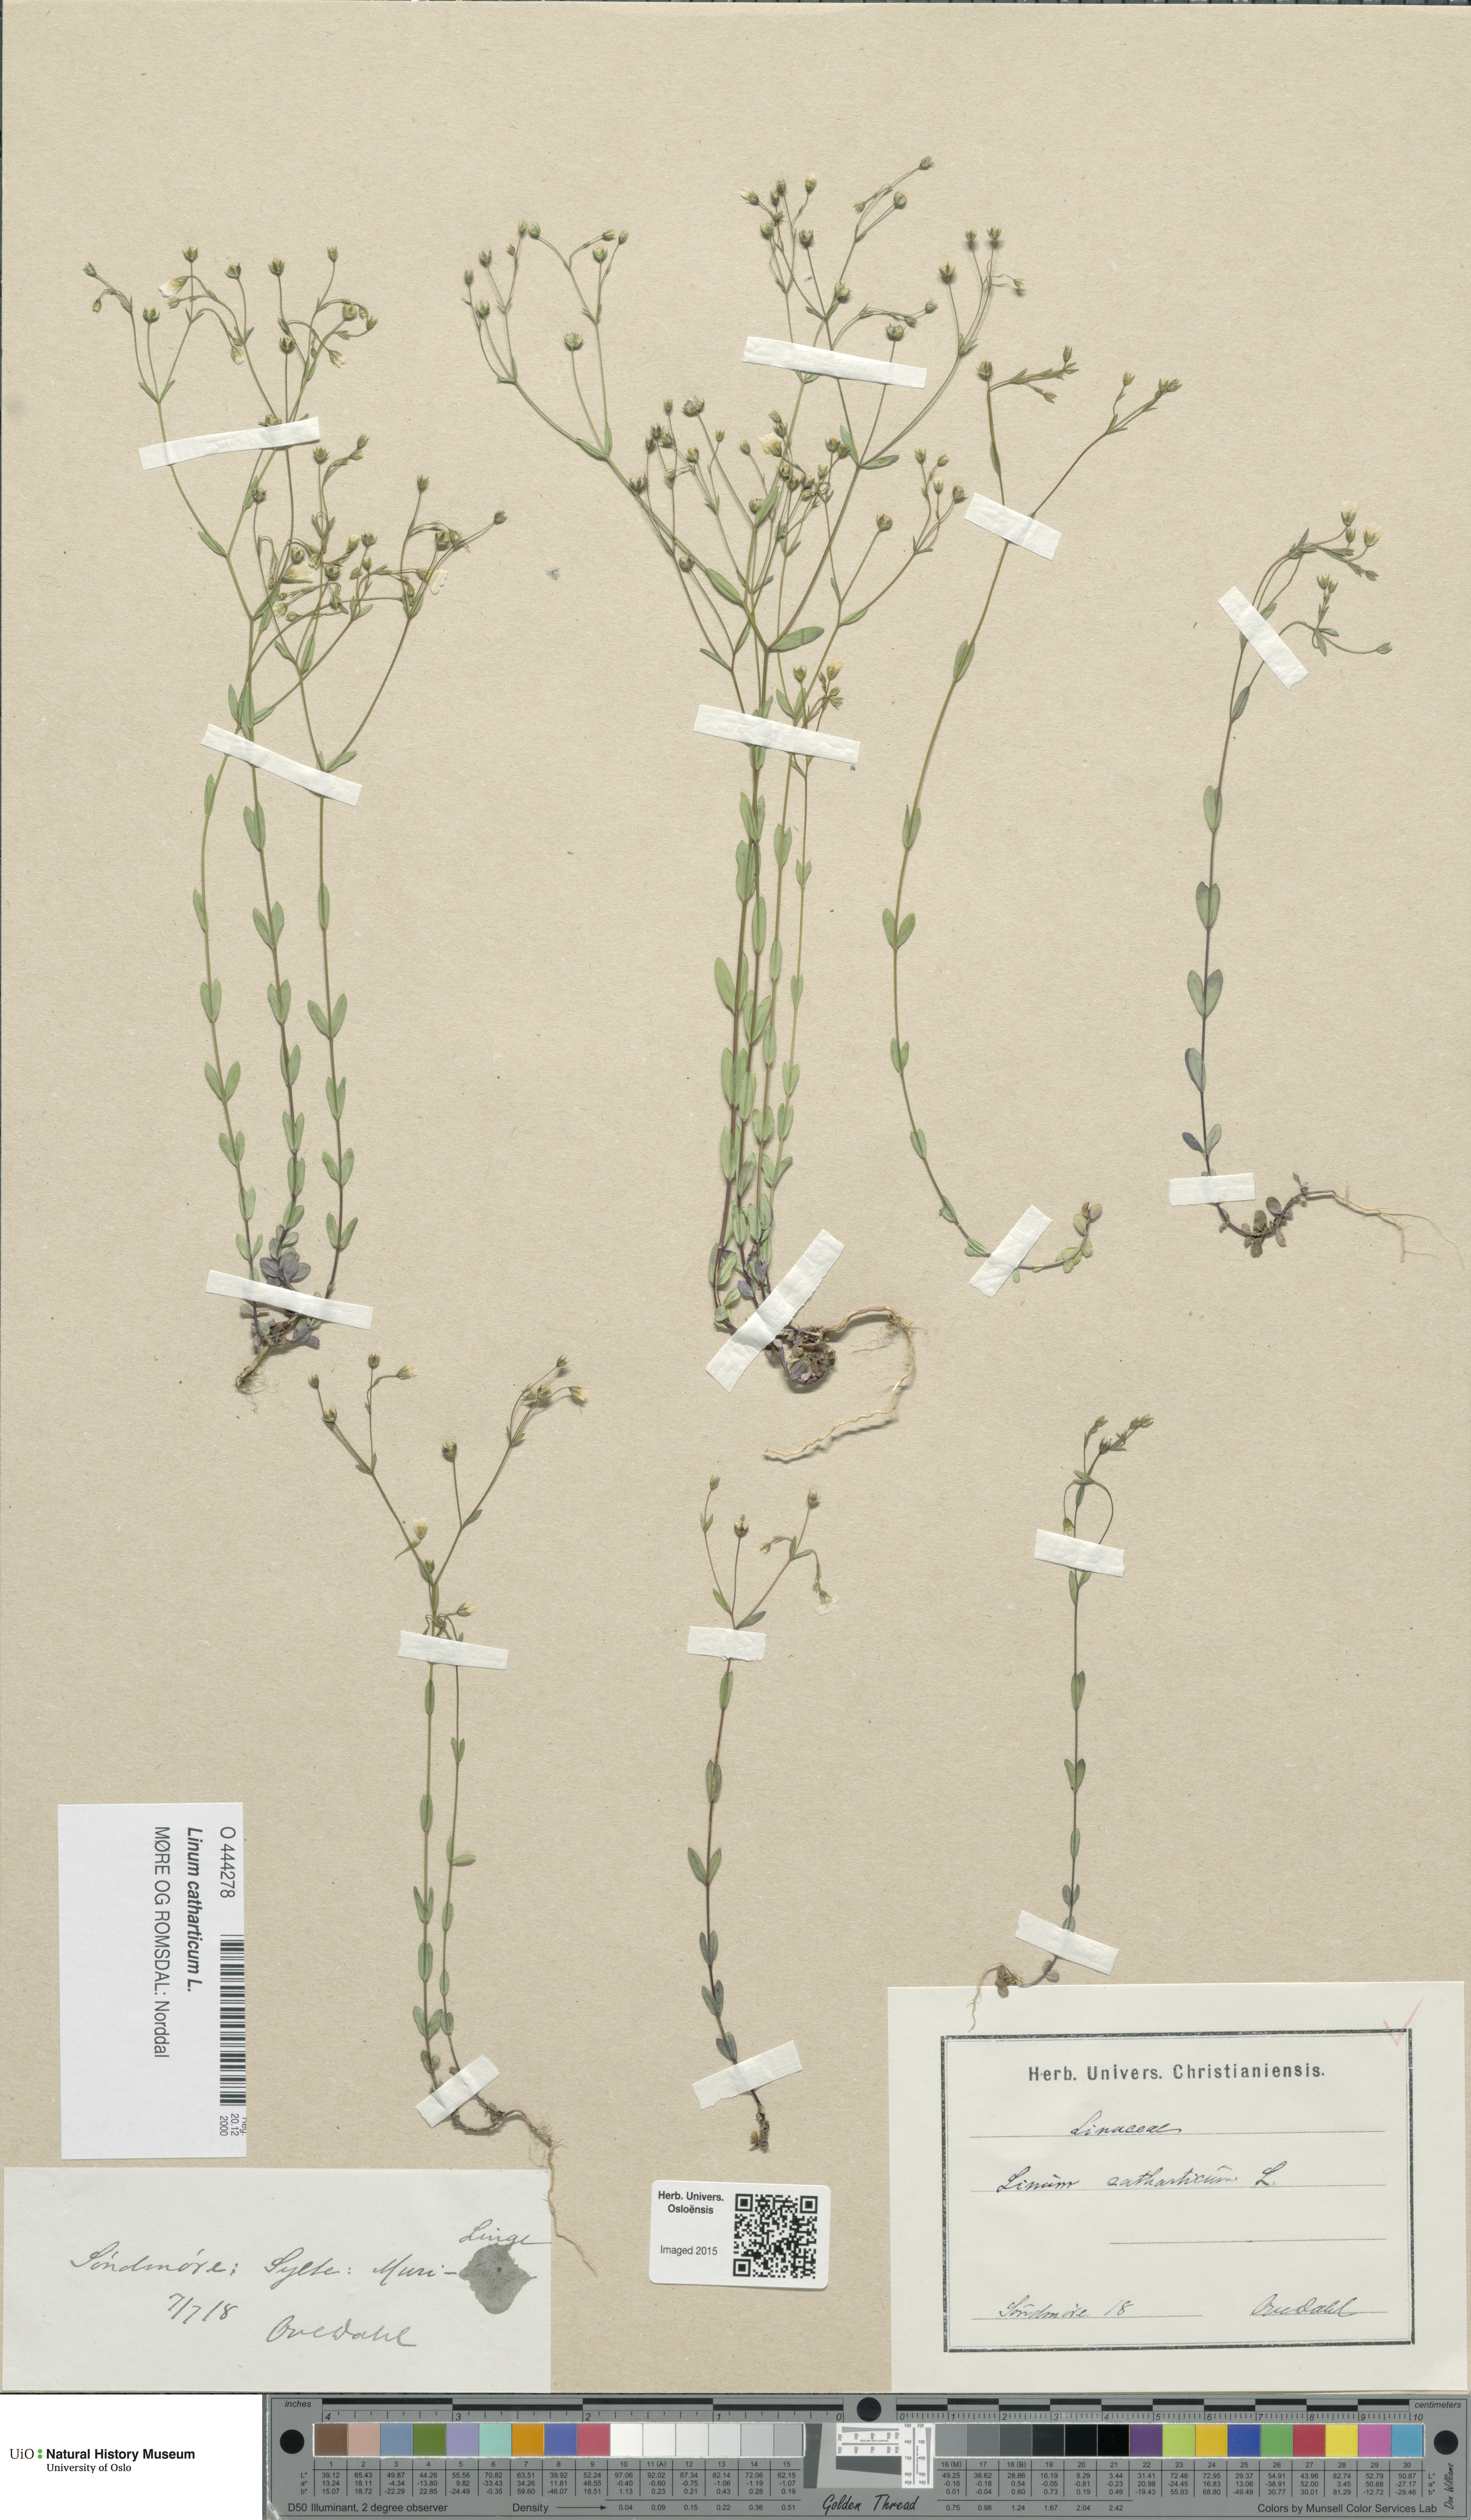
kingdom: Plantae
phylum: Tracheophyta
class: Magnoliopsida
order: Malpighiales
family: Linaceae
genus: Linum
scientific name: Linum catharticum
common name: Fairy flax
